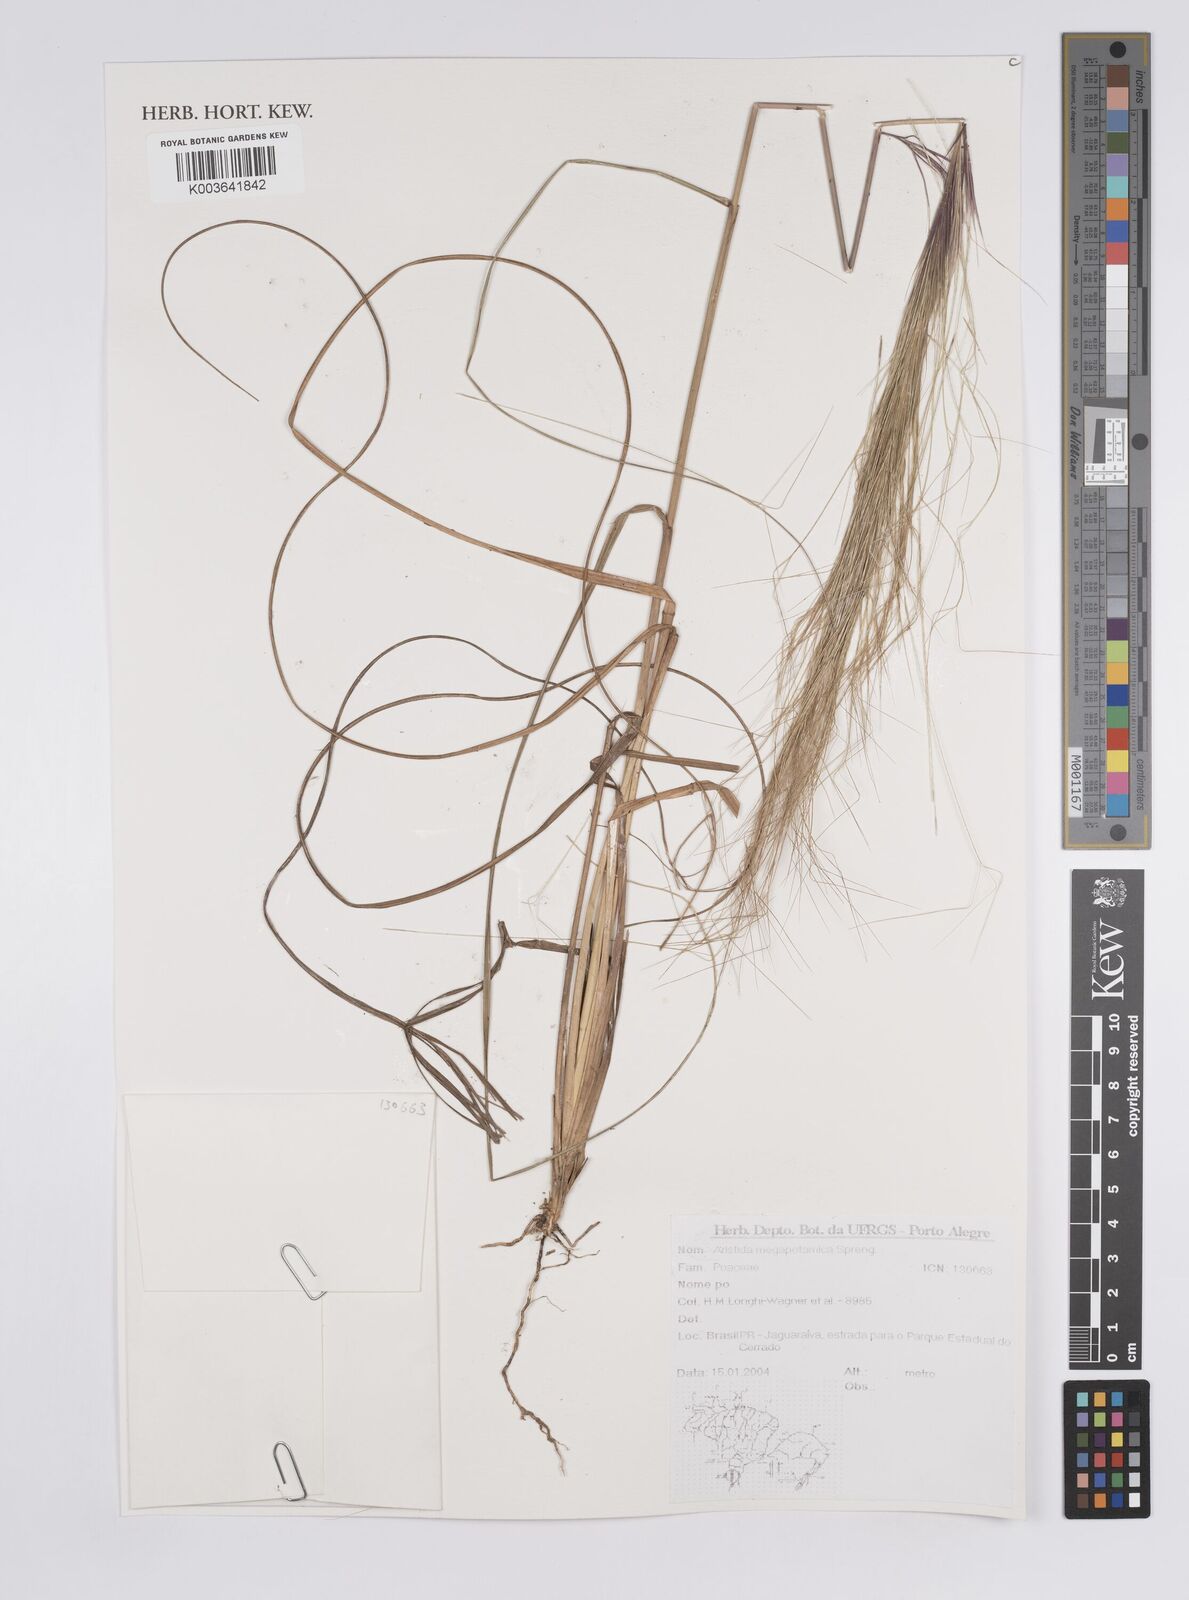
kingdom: Plantae
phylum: Tracheophyta
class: Liliopsida
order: Poales
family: Poaceae
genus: Aristida
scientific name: Aristida megapotamica
